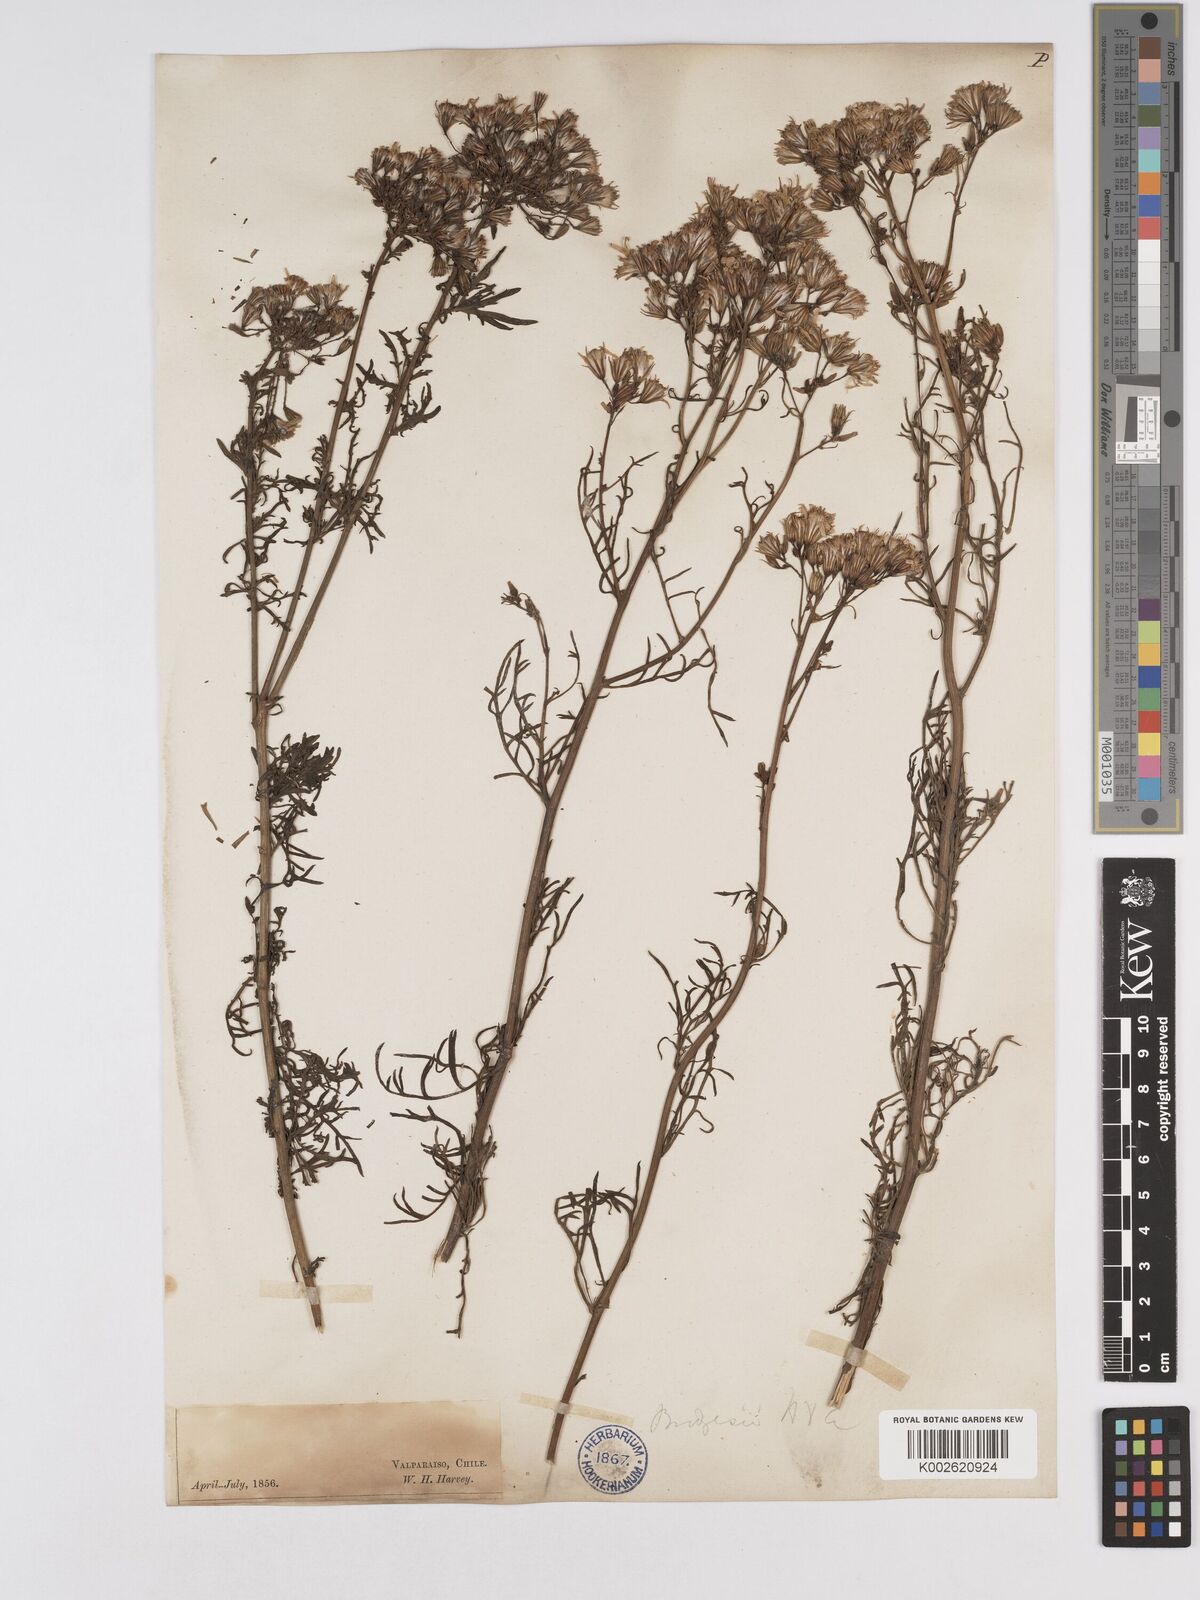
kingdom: Plantae
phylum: Tracheophyta
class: Magnoliopsida
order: Asterales
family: Asteraceae
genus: Senecio
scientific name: Senecio bridgesii
